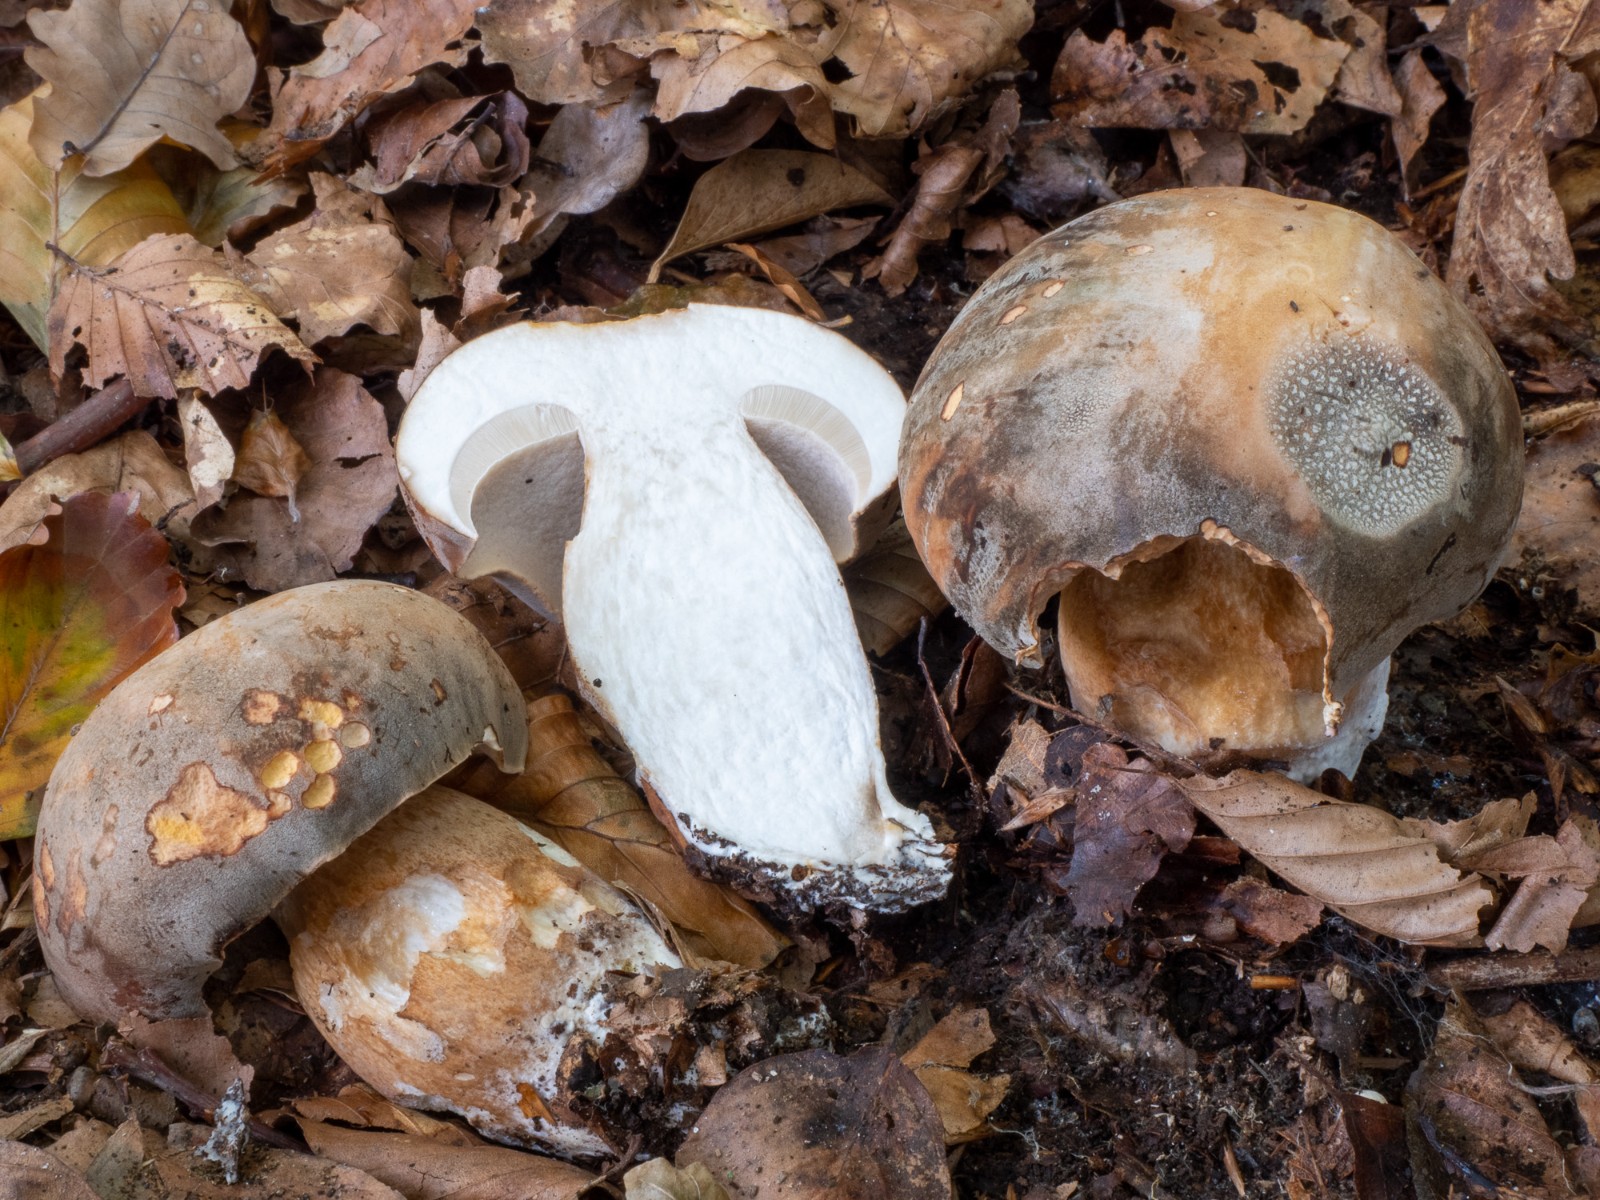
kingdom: Fungi
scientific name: Fungi
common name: bronze-rørhat
